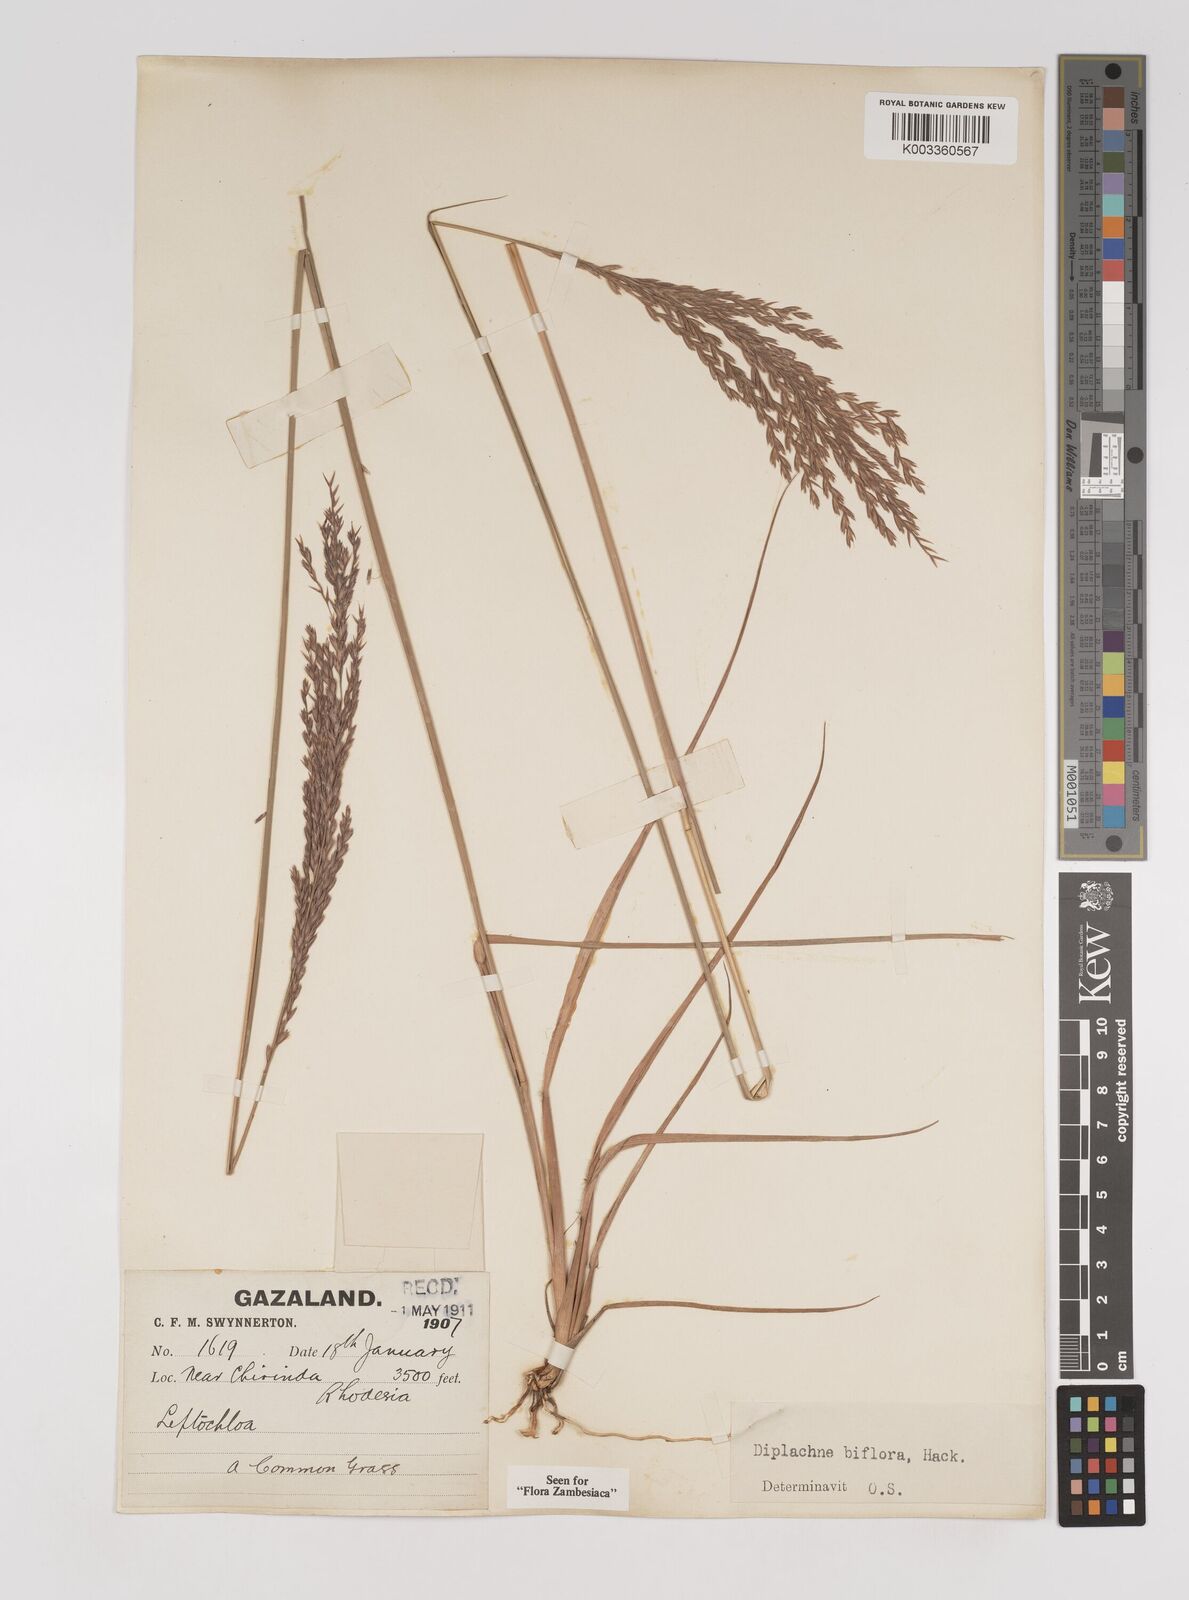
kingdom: Plantae
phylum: Tracheophyta
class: Liliopsida
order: Poales
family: Poaceae
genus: Bewsia
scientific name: Bewsia biflora
